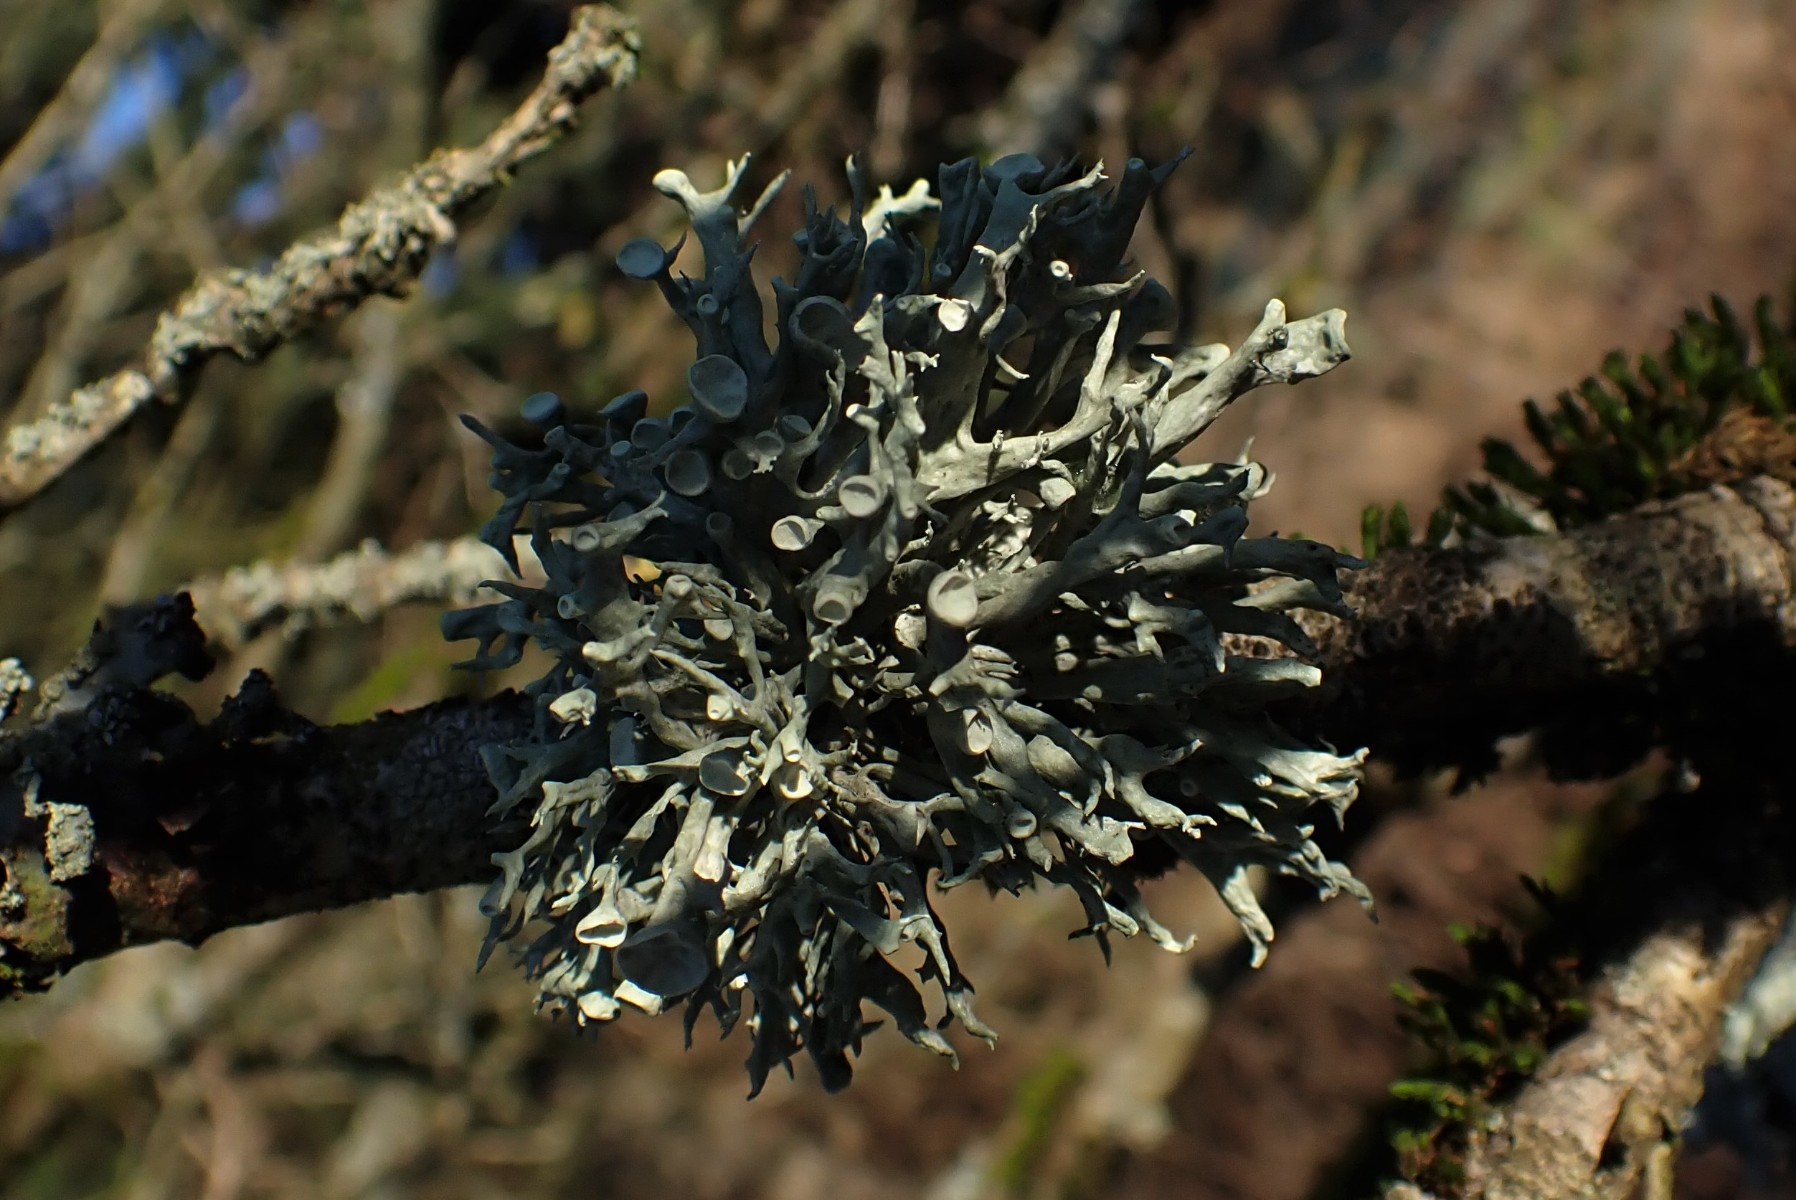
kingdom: Fungi
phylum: Ascomycota
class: Lecanoromycetes
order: Lecanorales
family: Ramalinaceae
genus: Ramalina
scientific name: Ramalina fastigiata
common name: tue-grenlav
